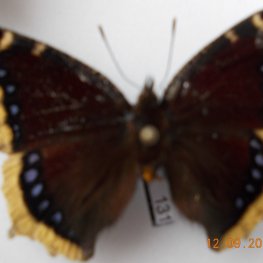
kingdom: Animalia
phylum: Arthropoda
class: Insecta
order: Lepidoptera
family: Nymphalidae
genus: Nymphalis
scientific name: Nymphalis antiopa
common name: Mourning Cloak
